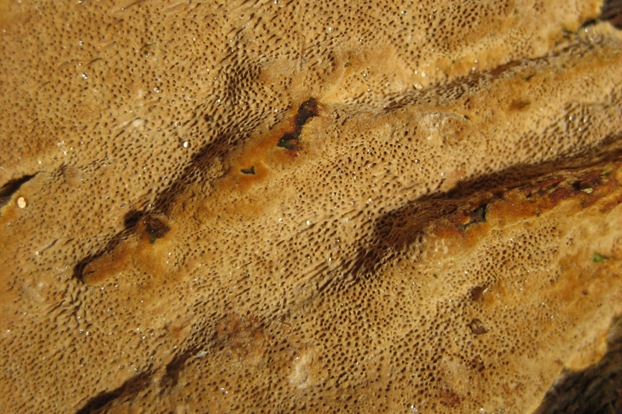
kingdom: Fungi
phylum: Basidiomycota
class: Agaricomycetes
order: Hymenochaetales
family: Hymenochaetaceae
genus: Fuscoporia
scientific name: Fuscoporia ferruginosa
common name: rustbrun ildporesvamp
